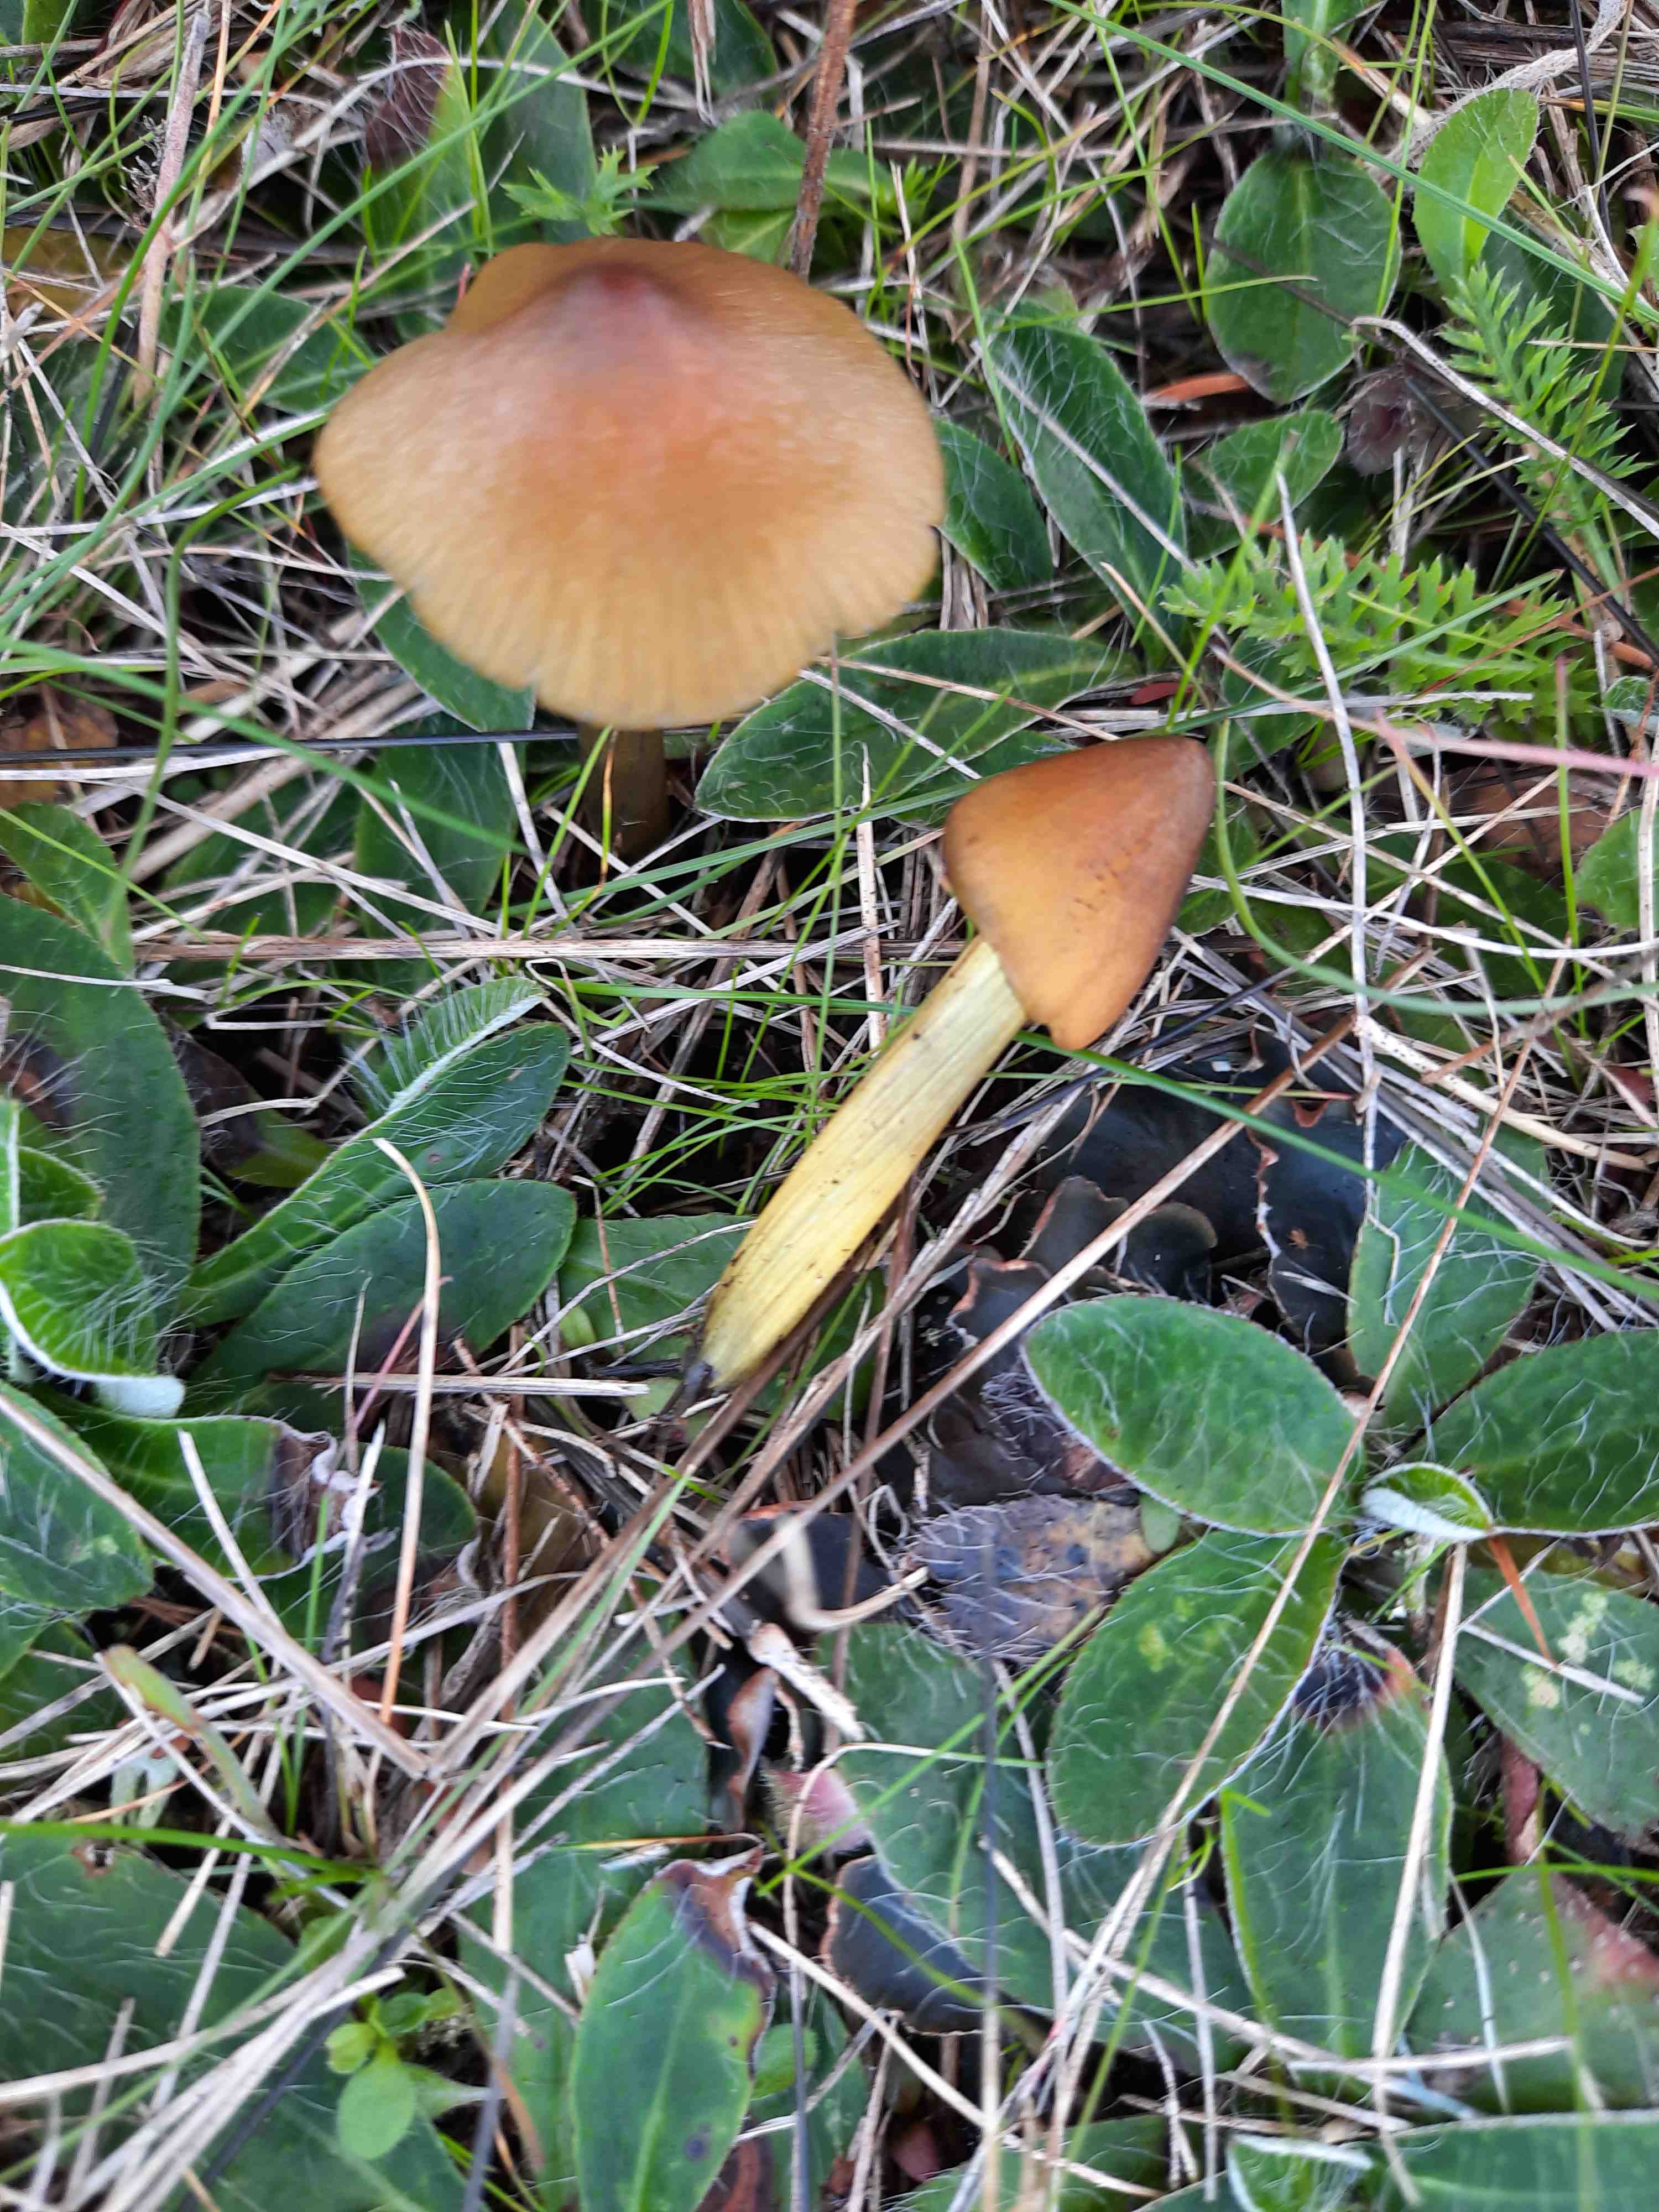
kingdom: Fungi
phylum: Basidiomycota
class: Agaricomycetes
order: Agaricales
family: Hygrophoraceae
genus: Hygrocybe
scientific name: Hygrocybe conica
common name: kegle-vokshat
